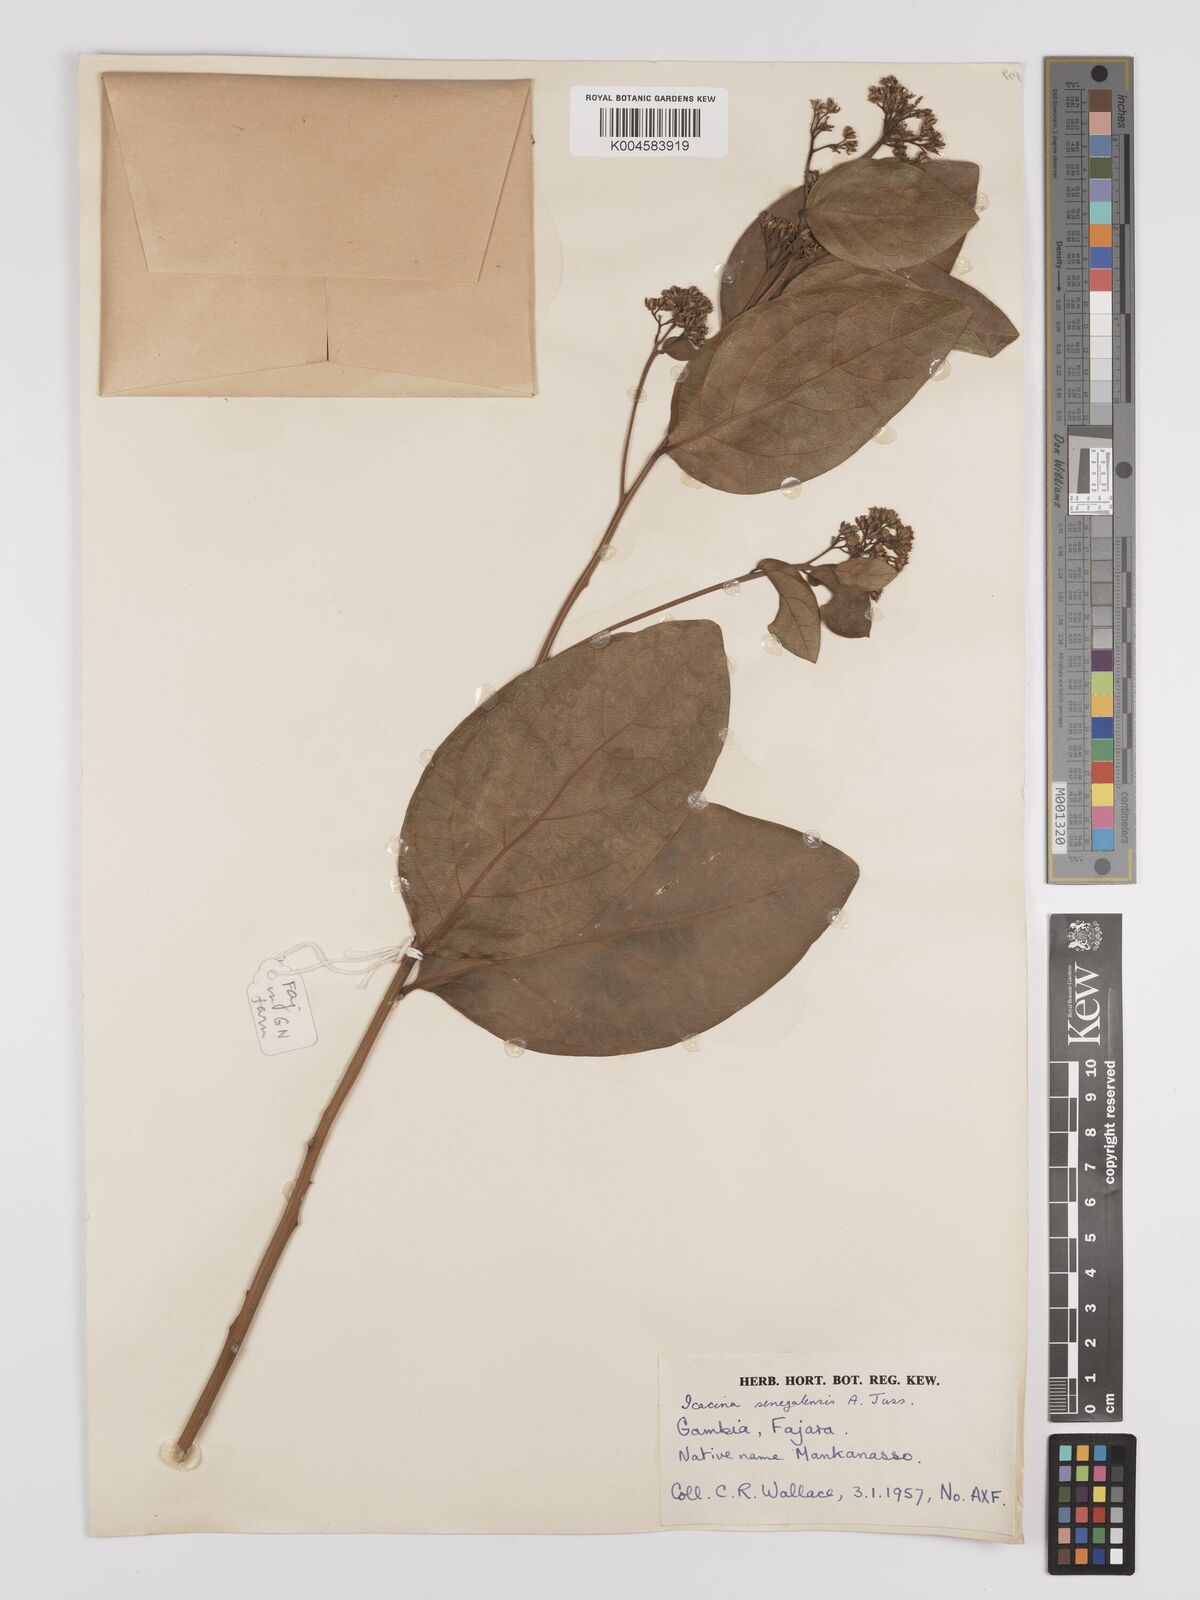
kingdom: Plantae
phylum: Tracheophyta
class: Magnoliopsida
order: Icacinales
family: Icacinaceae
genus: Icacina
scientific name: Icacina oliviformis
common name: False yam
